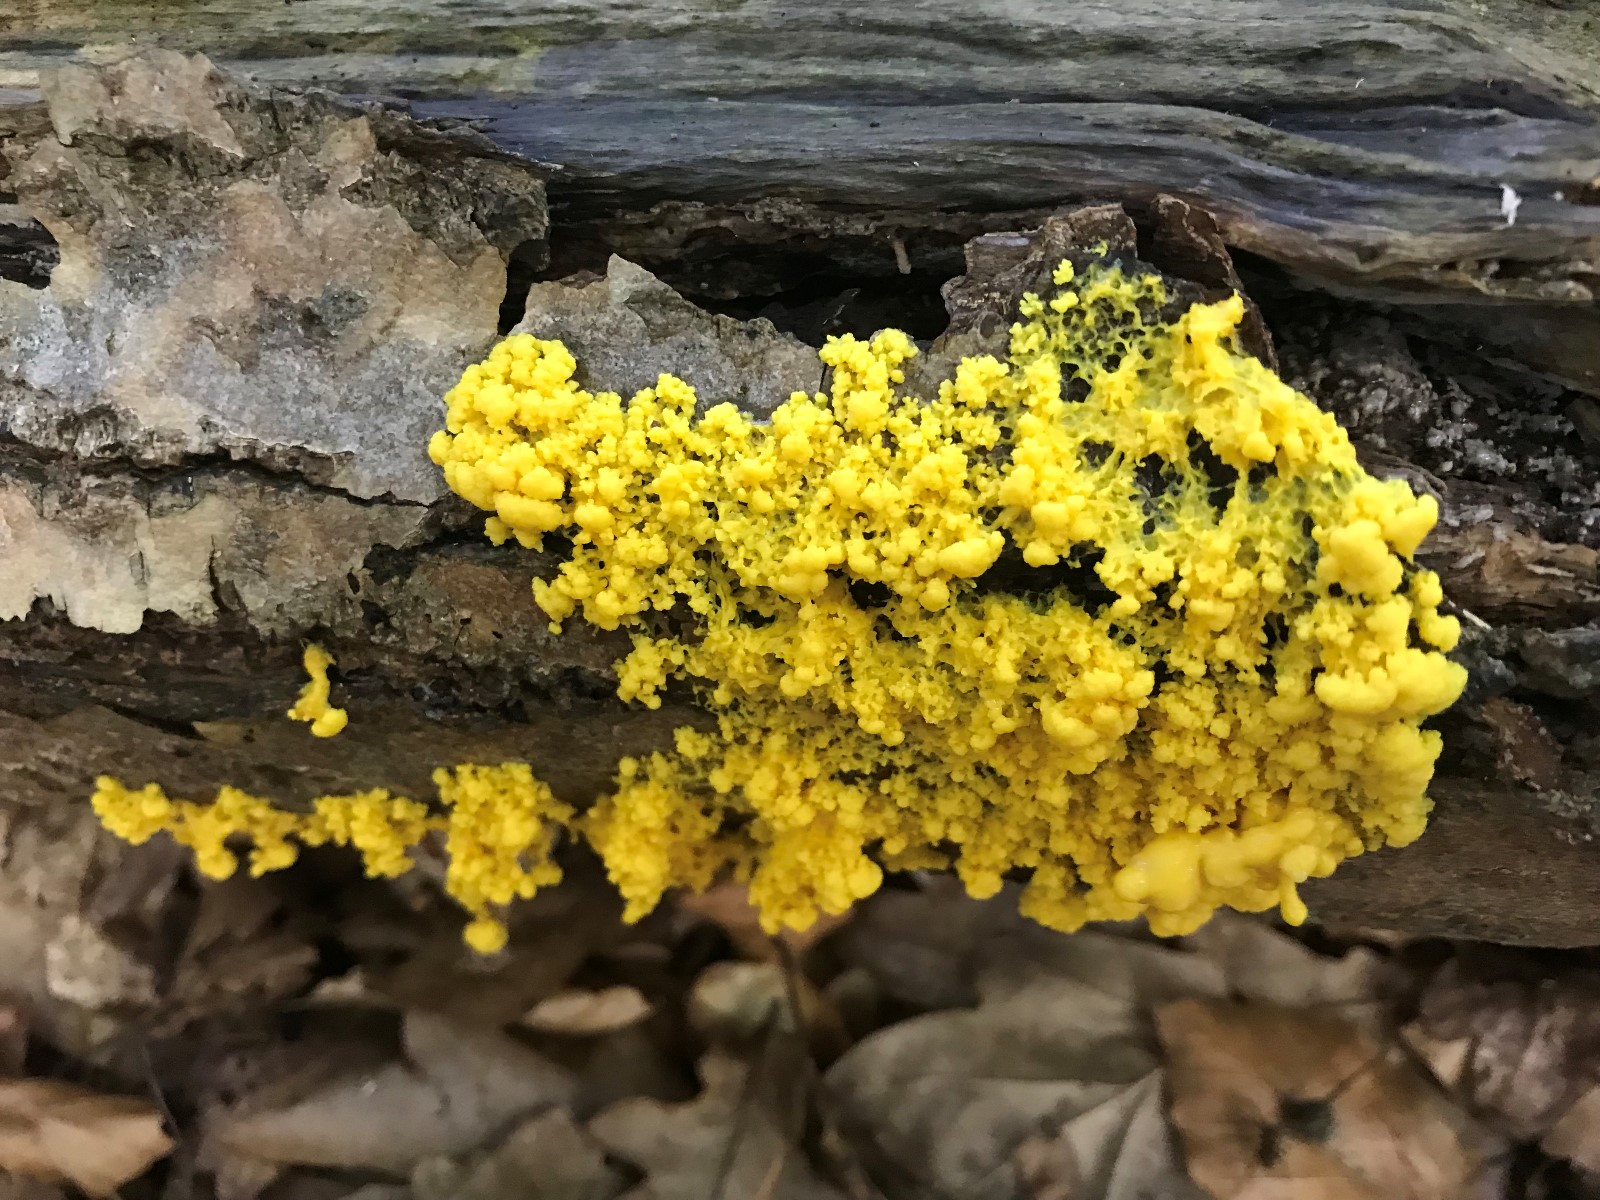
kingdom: Protozoa
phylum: Mycetozoa
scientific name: Mycetozoa
